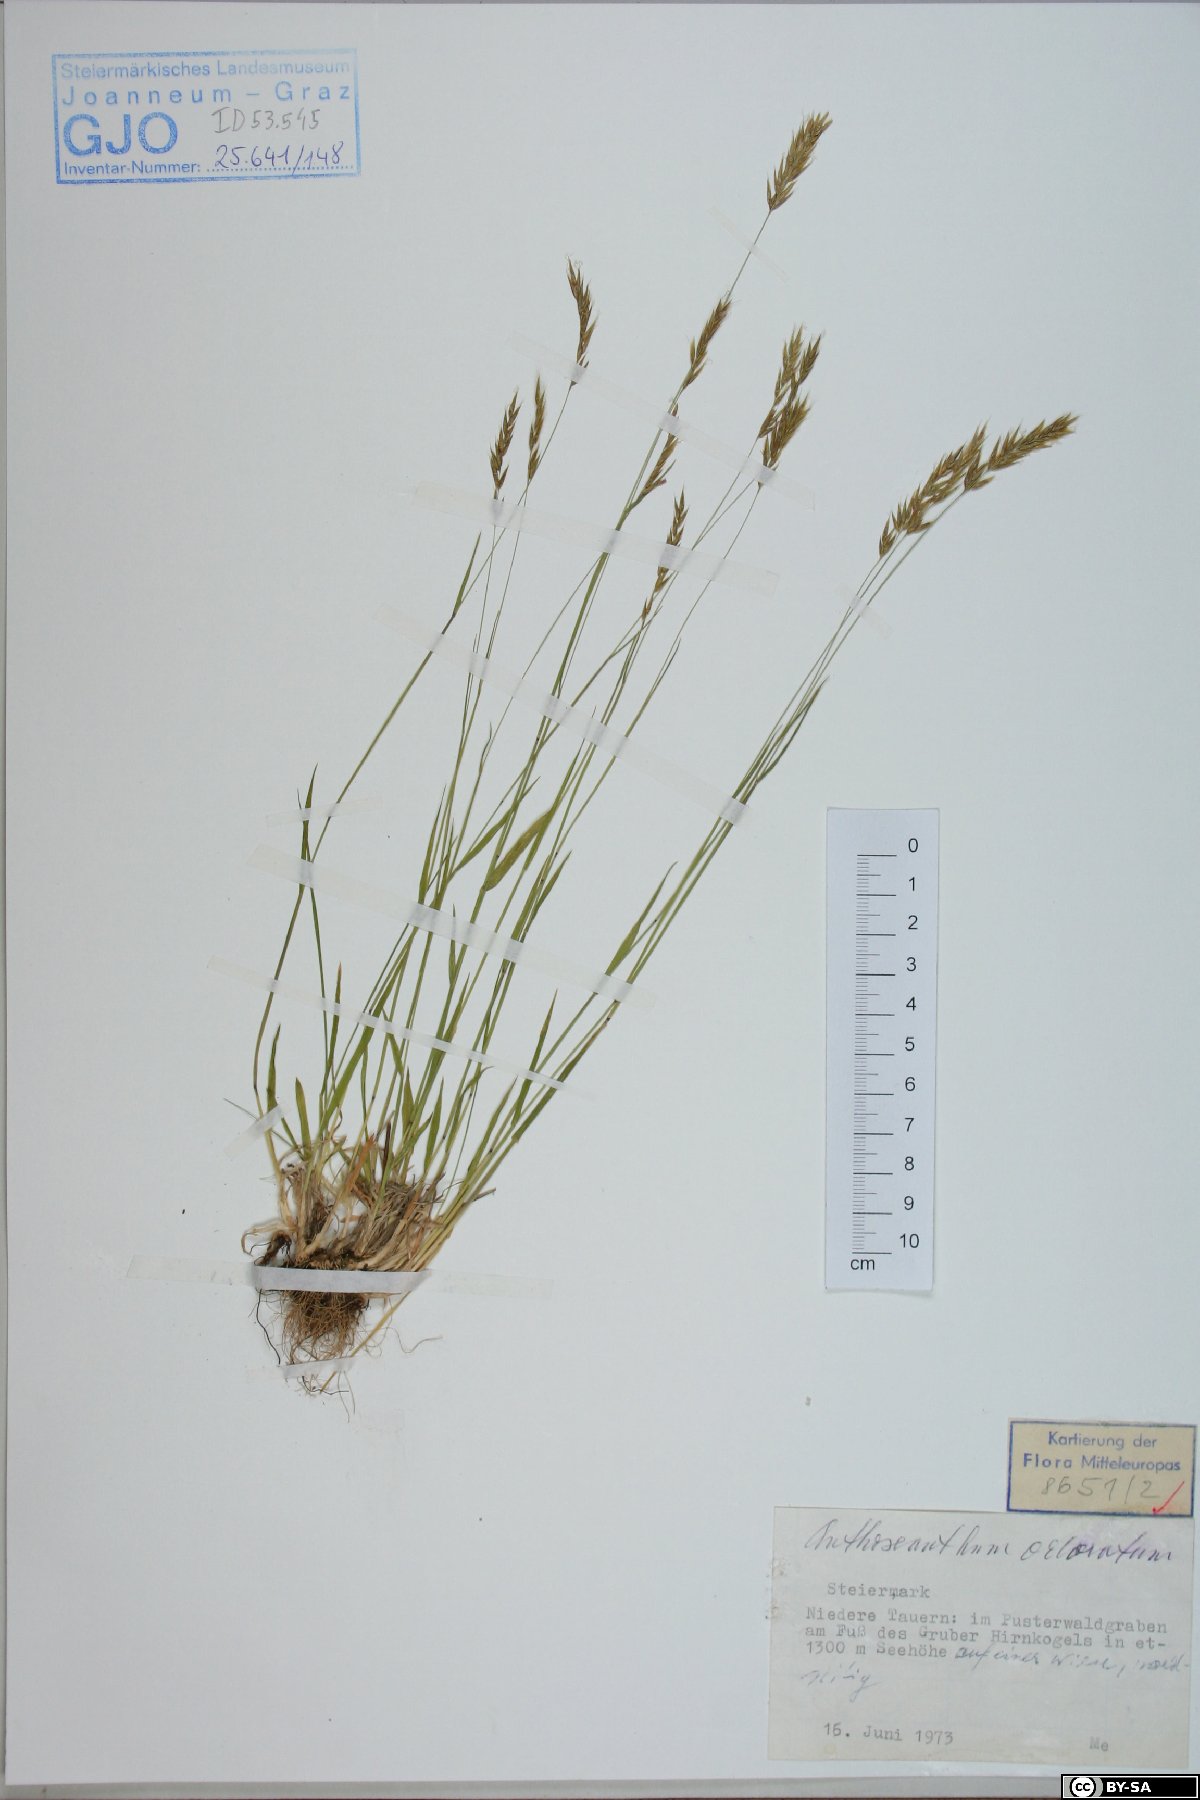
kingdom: Plantae
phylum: Tracheophyta
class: Liliopsida
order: Poales
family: Poaceae
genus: Anthoxanthum
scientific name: Anthoxanthum odoratum
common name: Sweet vernalgrass
